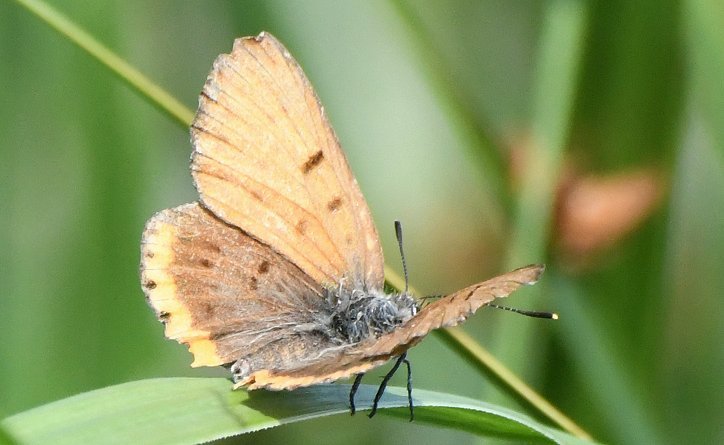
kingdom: Animalia
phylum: Arthropoda
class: Insecta
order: Lepidoptera
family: Sesiidae
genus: Sesia
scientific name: Sesia Lycaena hyllus
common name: Bronze Copper
